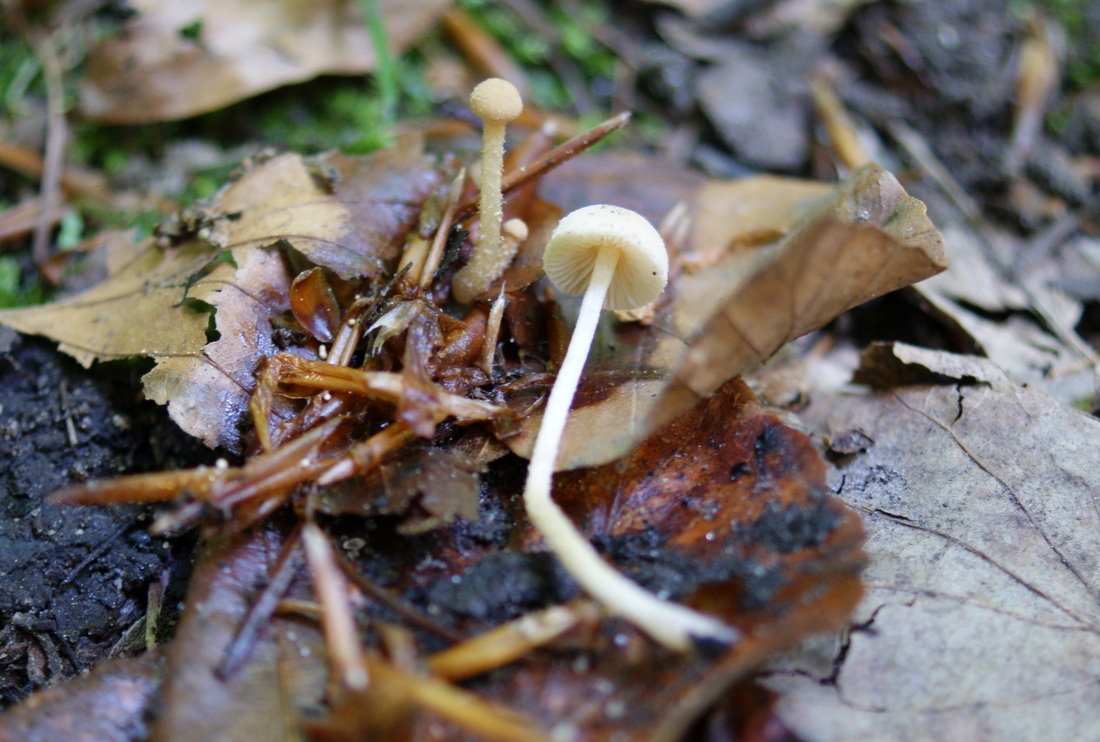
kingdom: Fungi
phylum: Basidiomycota
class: Agaricomycetes
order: Agaricales
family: Tubariaceae
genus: Flammulaster
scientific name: Flammulaster carpophilus
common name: rombesporet grynskælhat
